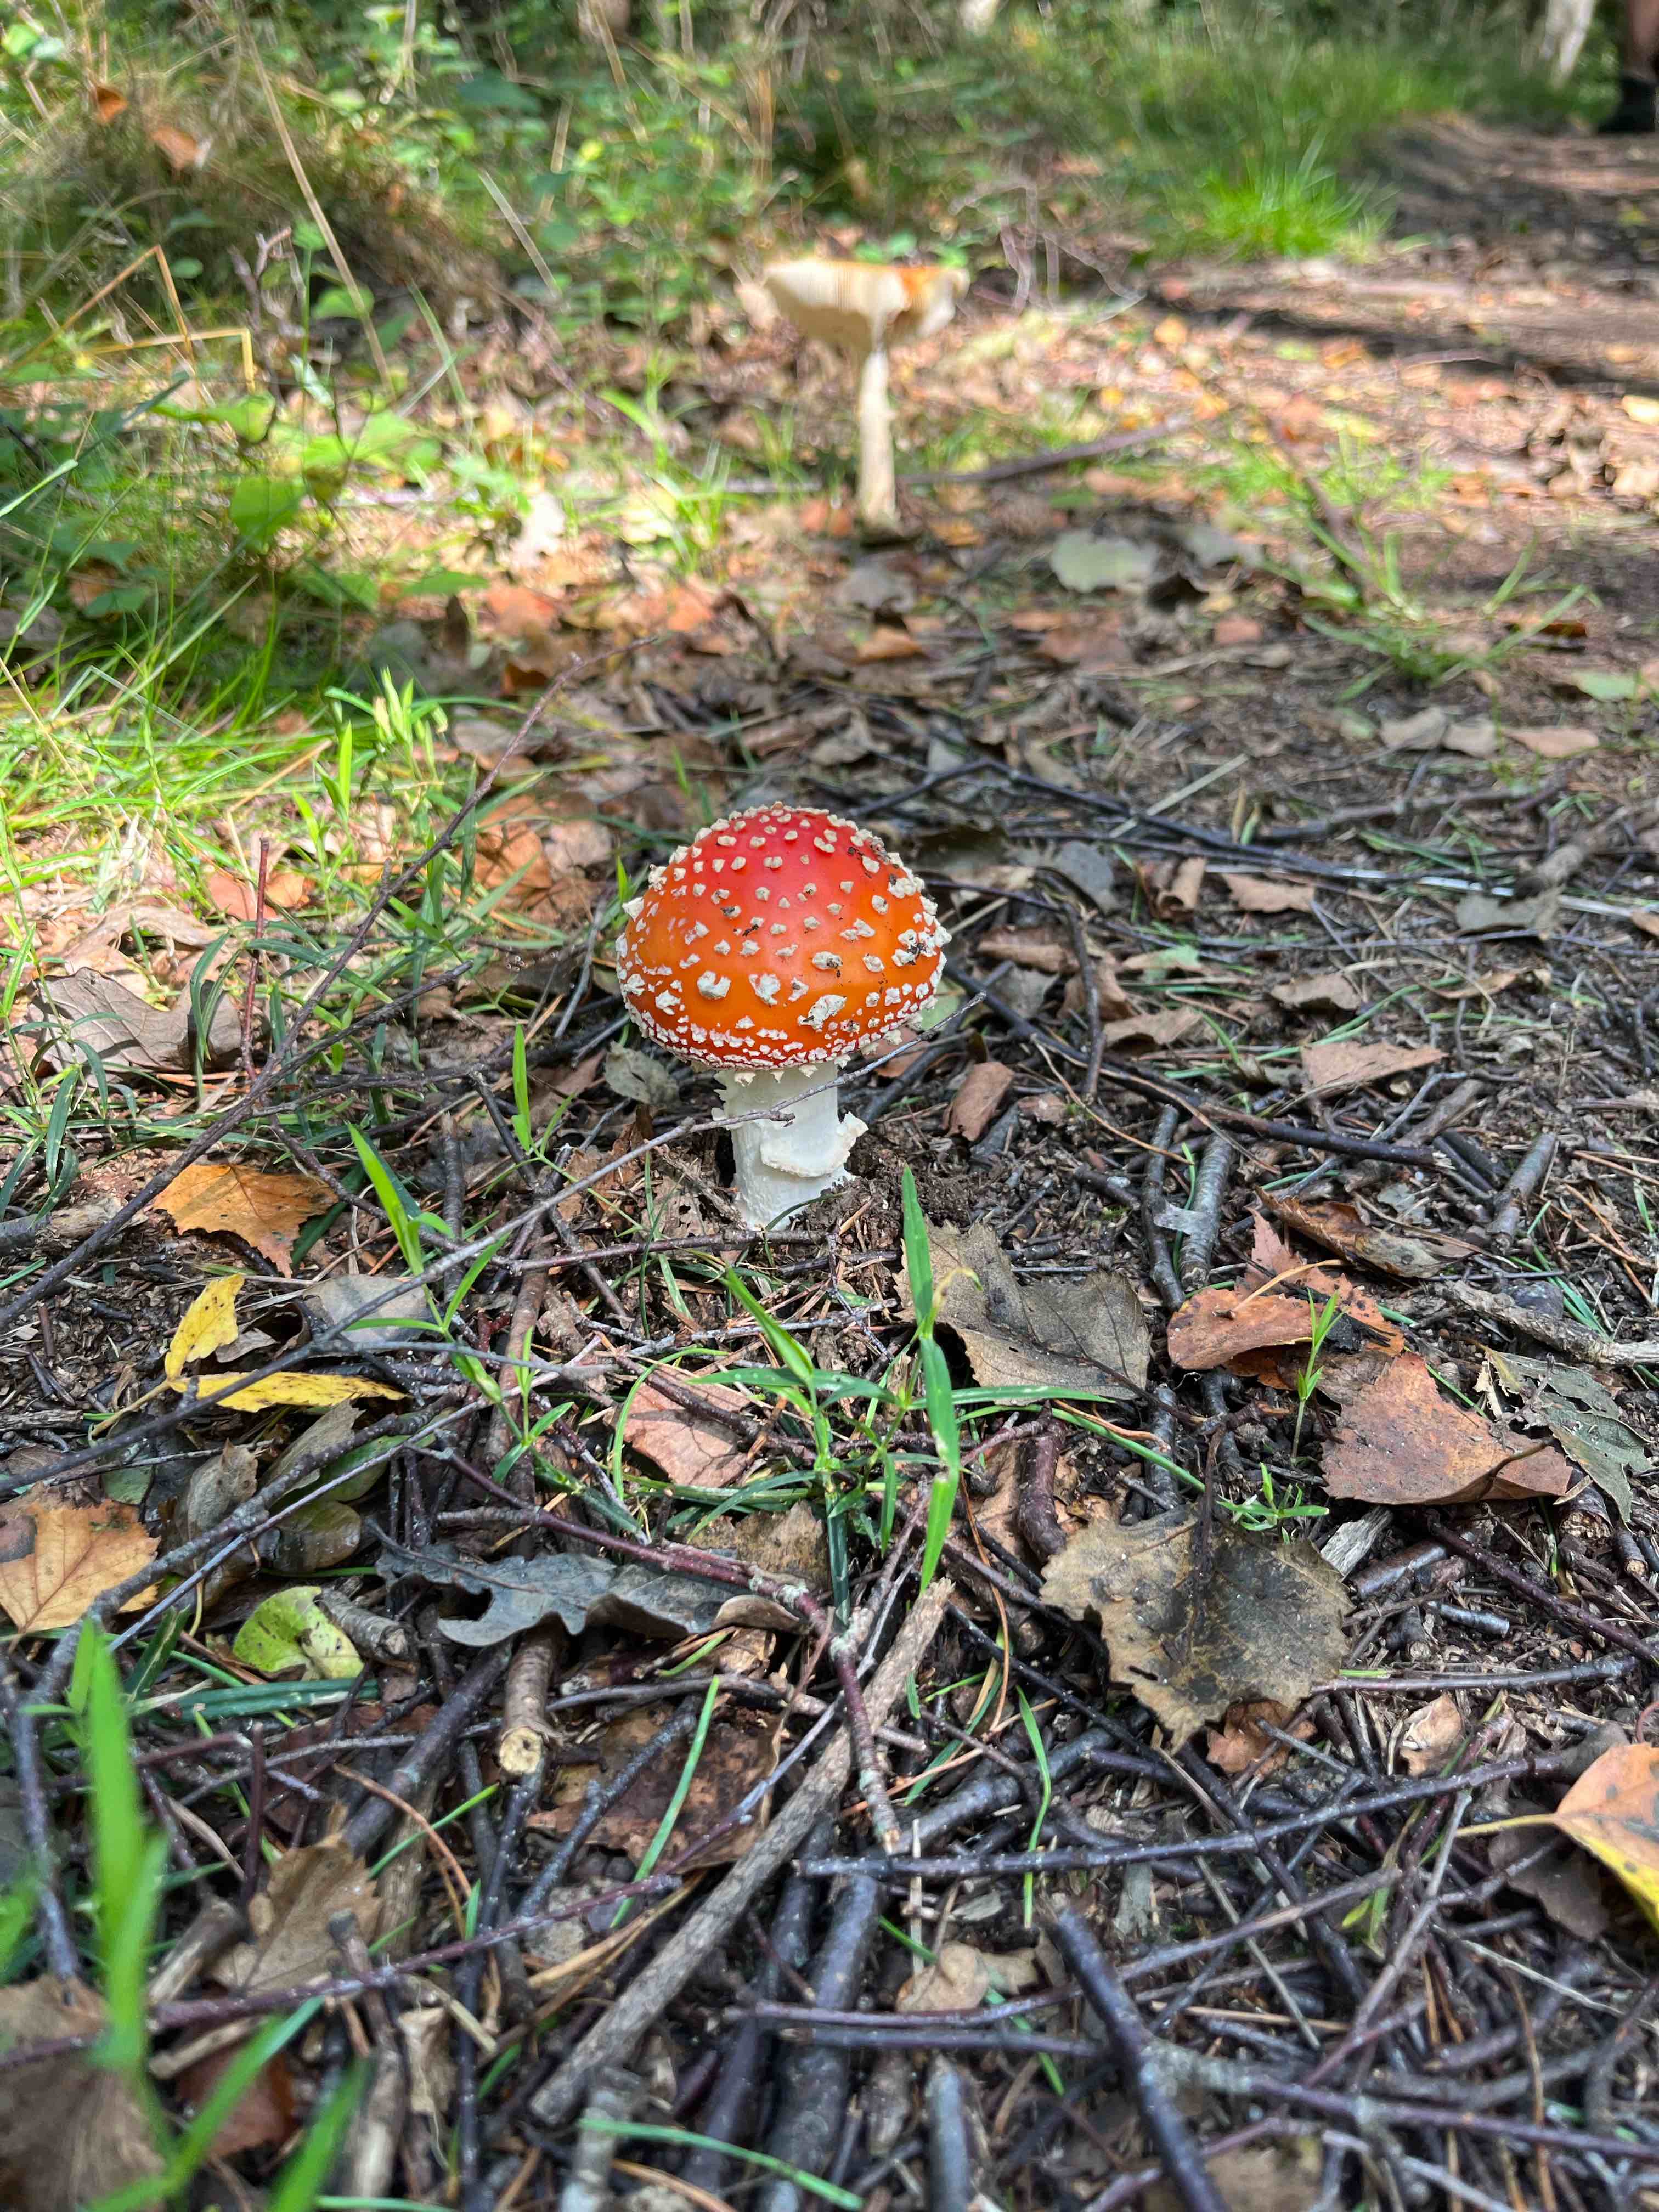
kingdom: Fungi
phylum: Basidiomycota
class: Agaricomycetes
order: Agaricales
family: Amanitaceae
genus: Amanita
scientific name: Amanita muscaria
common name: rød fluesvamp
